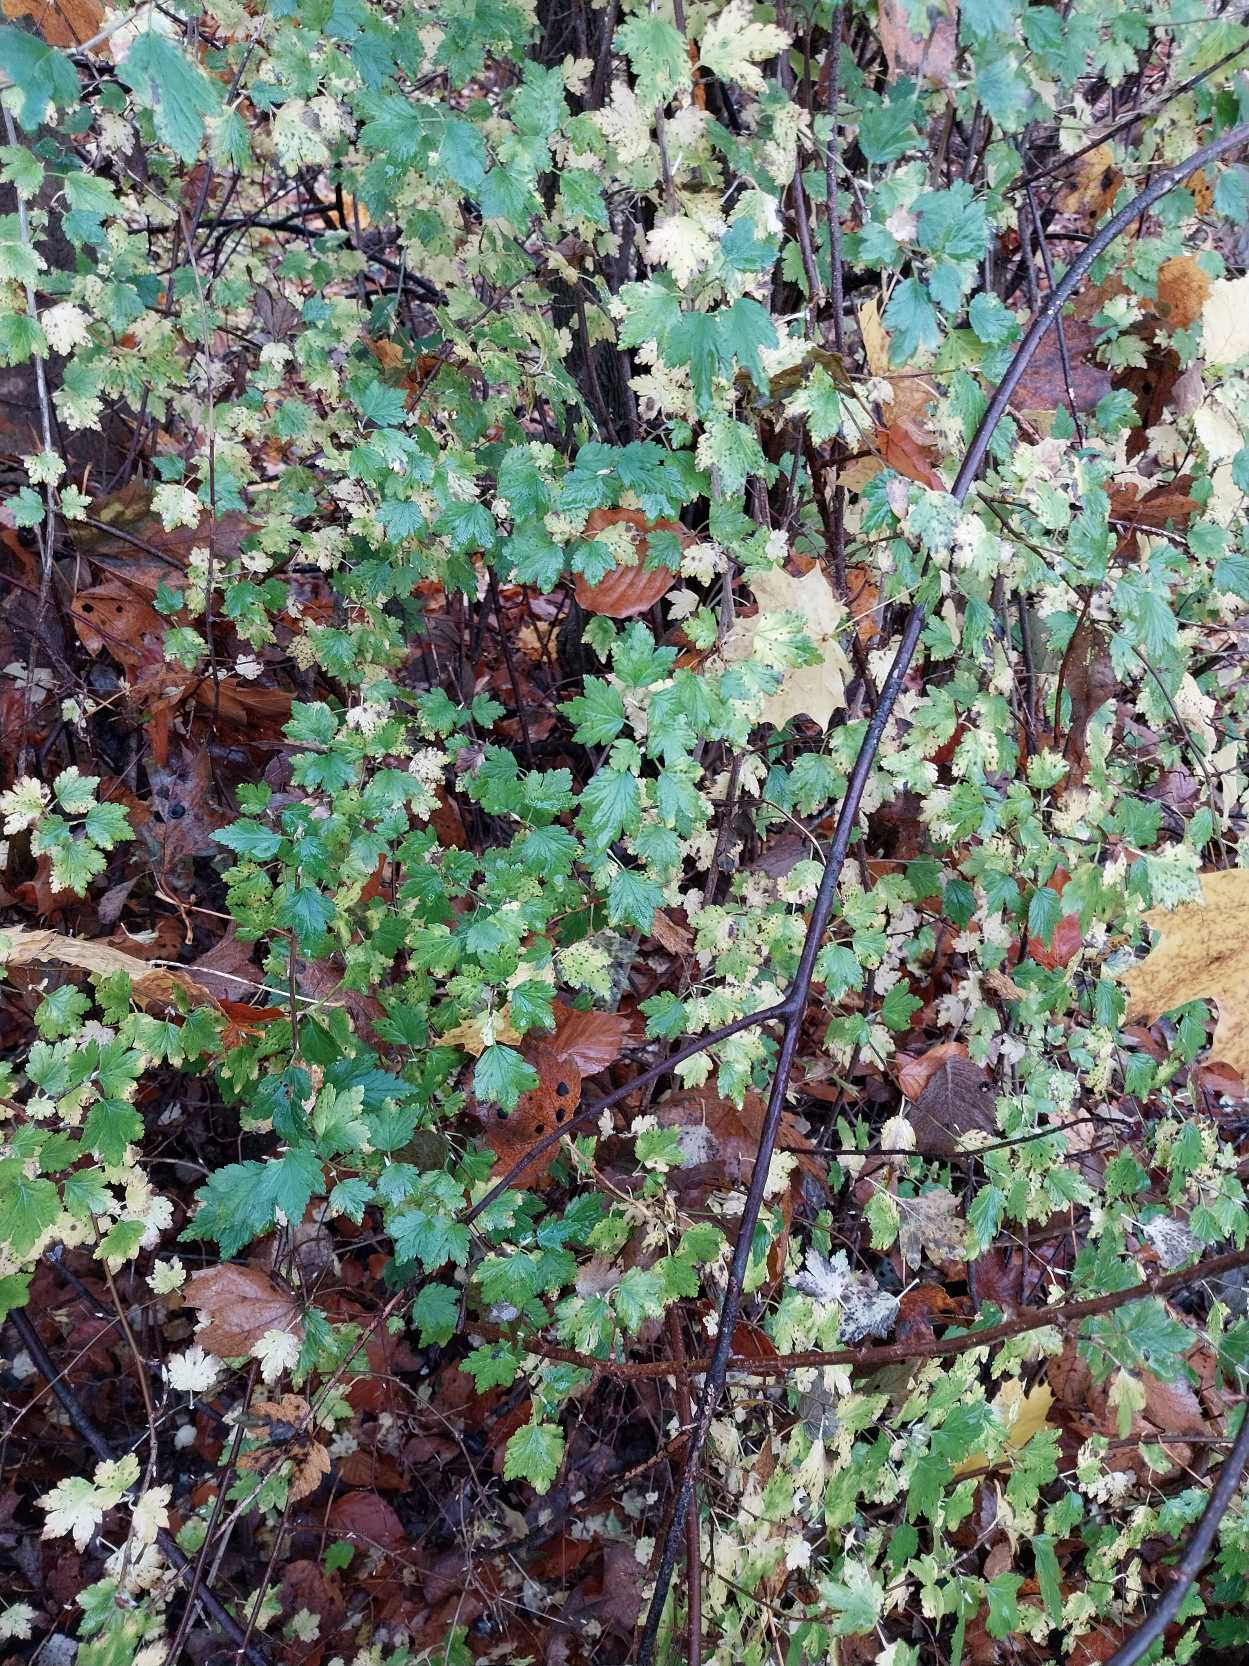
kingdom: Plantae
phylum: Tracheophyta
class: Magnoliopsida
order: Saxifragales
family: Grossulariaceae
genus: Ribes
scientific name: Ribes alpinum
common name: Fjeld-ribs
